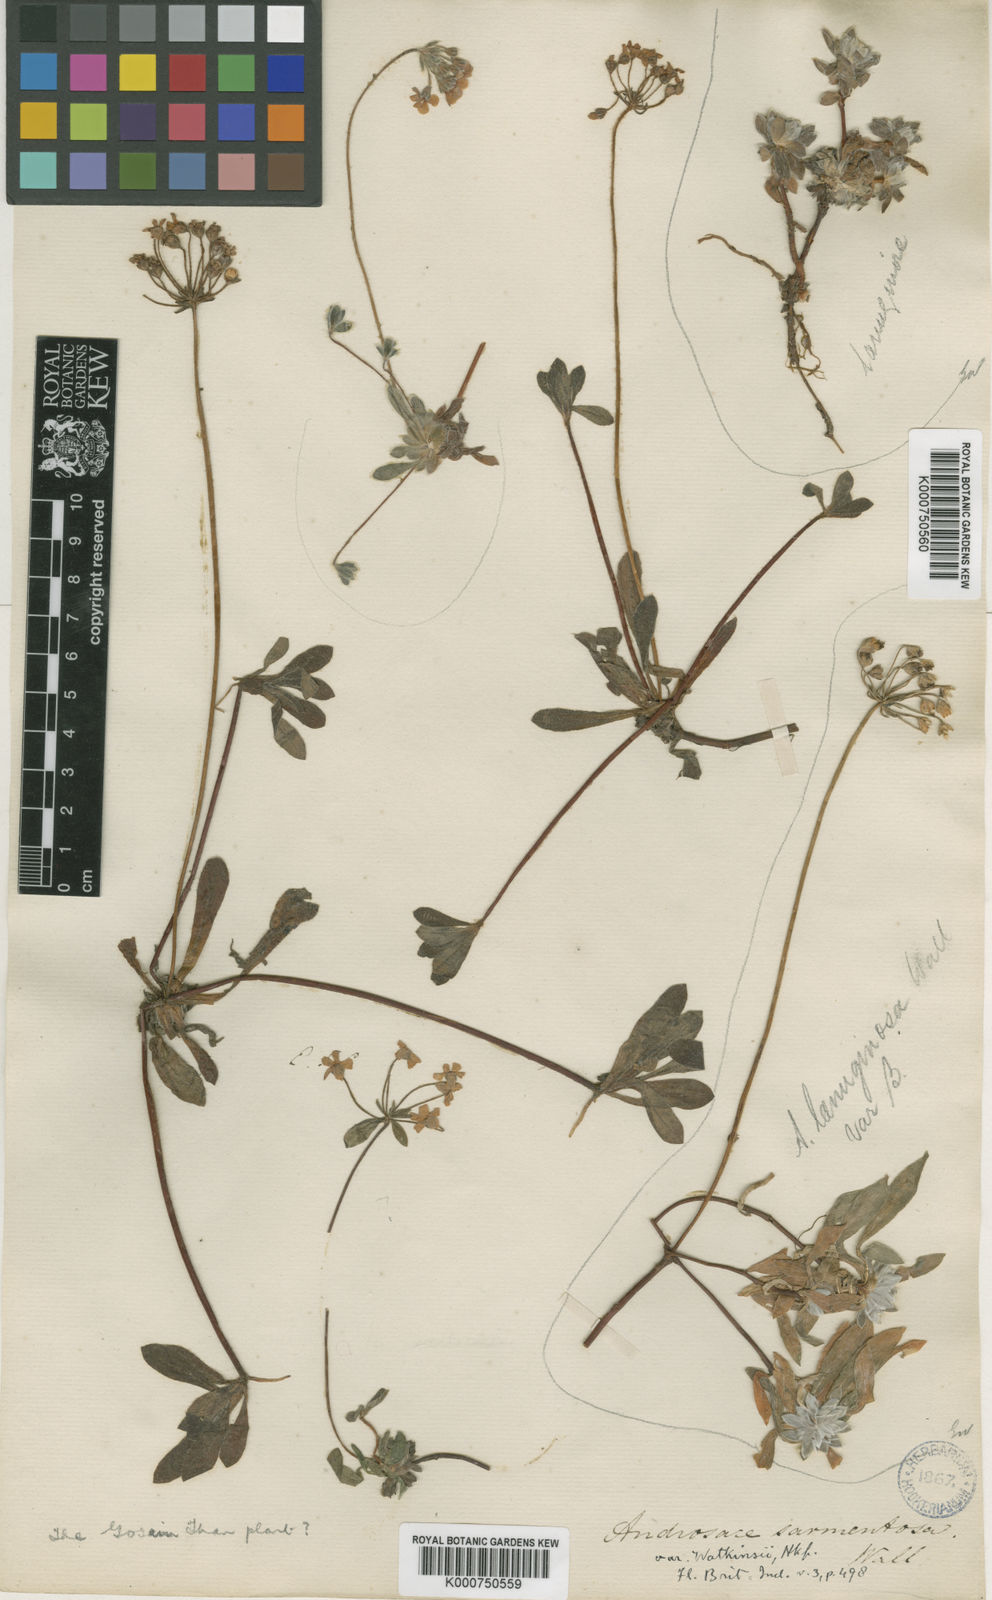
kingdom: Plantae
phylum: Tracheophyta
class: Magnoliopsida
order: Ericales
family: Primulaceae
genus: Androsace
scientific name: Androsace sarmentosa
